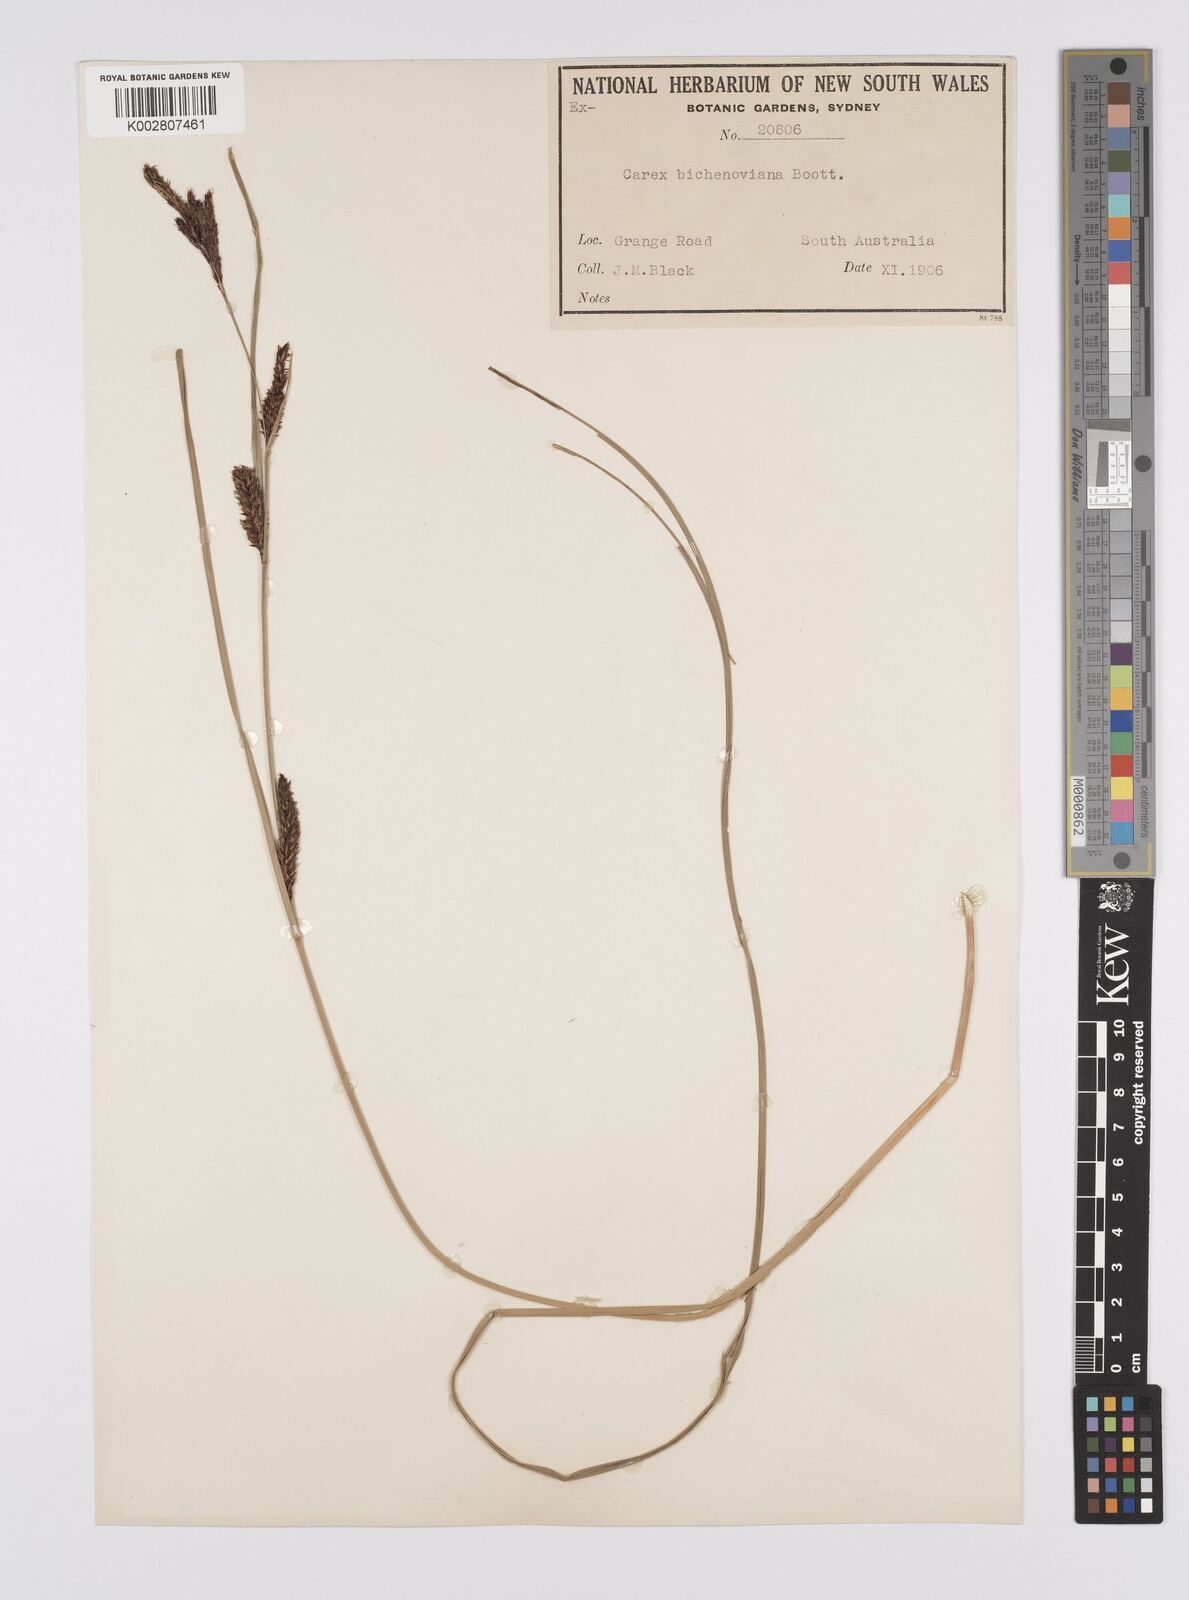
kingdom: Plantae
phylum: Tracheophyta
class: Liliopsida
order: Poales
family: Cyperaceae
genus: Carex
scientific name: Carex bichenoviana
